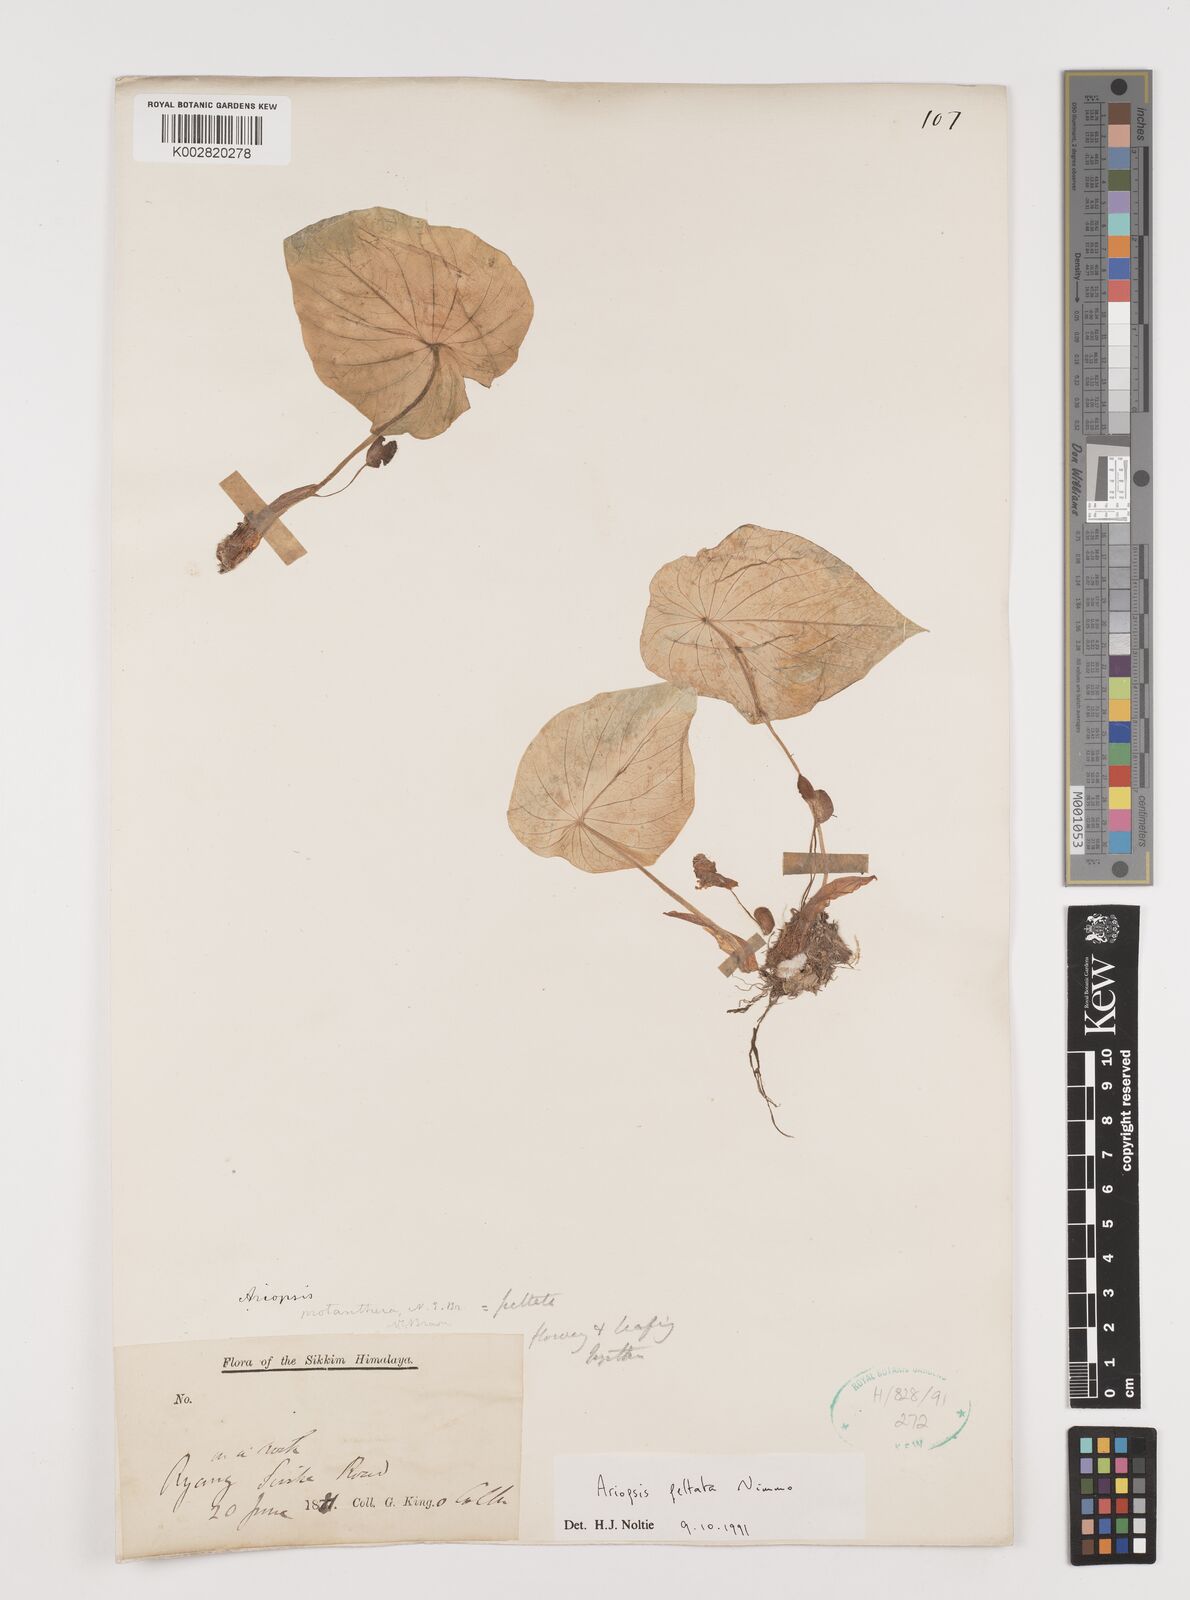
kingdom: Plantae
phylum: Tracheophyta
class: Liliopsida
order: Alismatales
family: Araceae
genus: Ariopsis
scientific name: Ariopsis peltata
